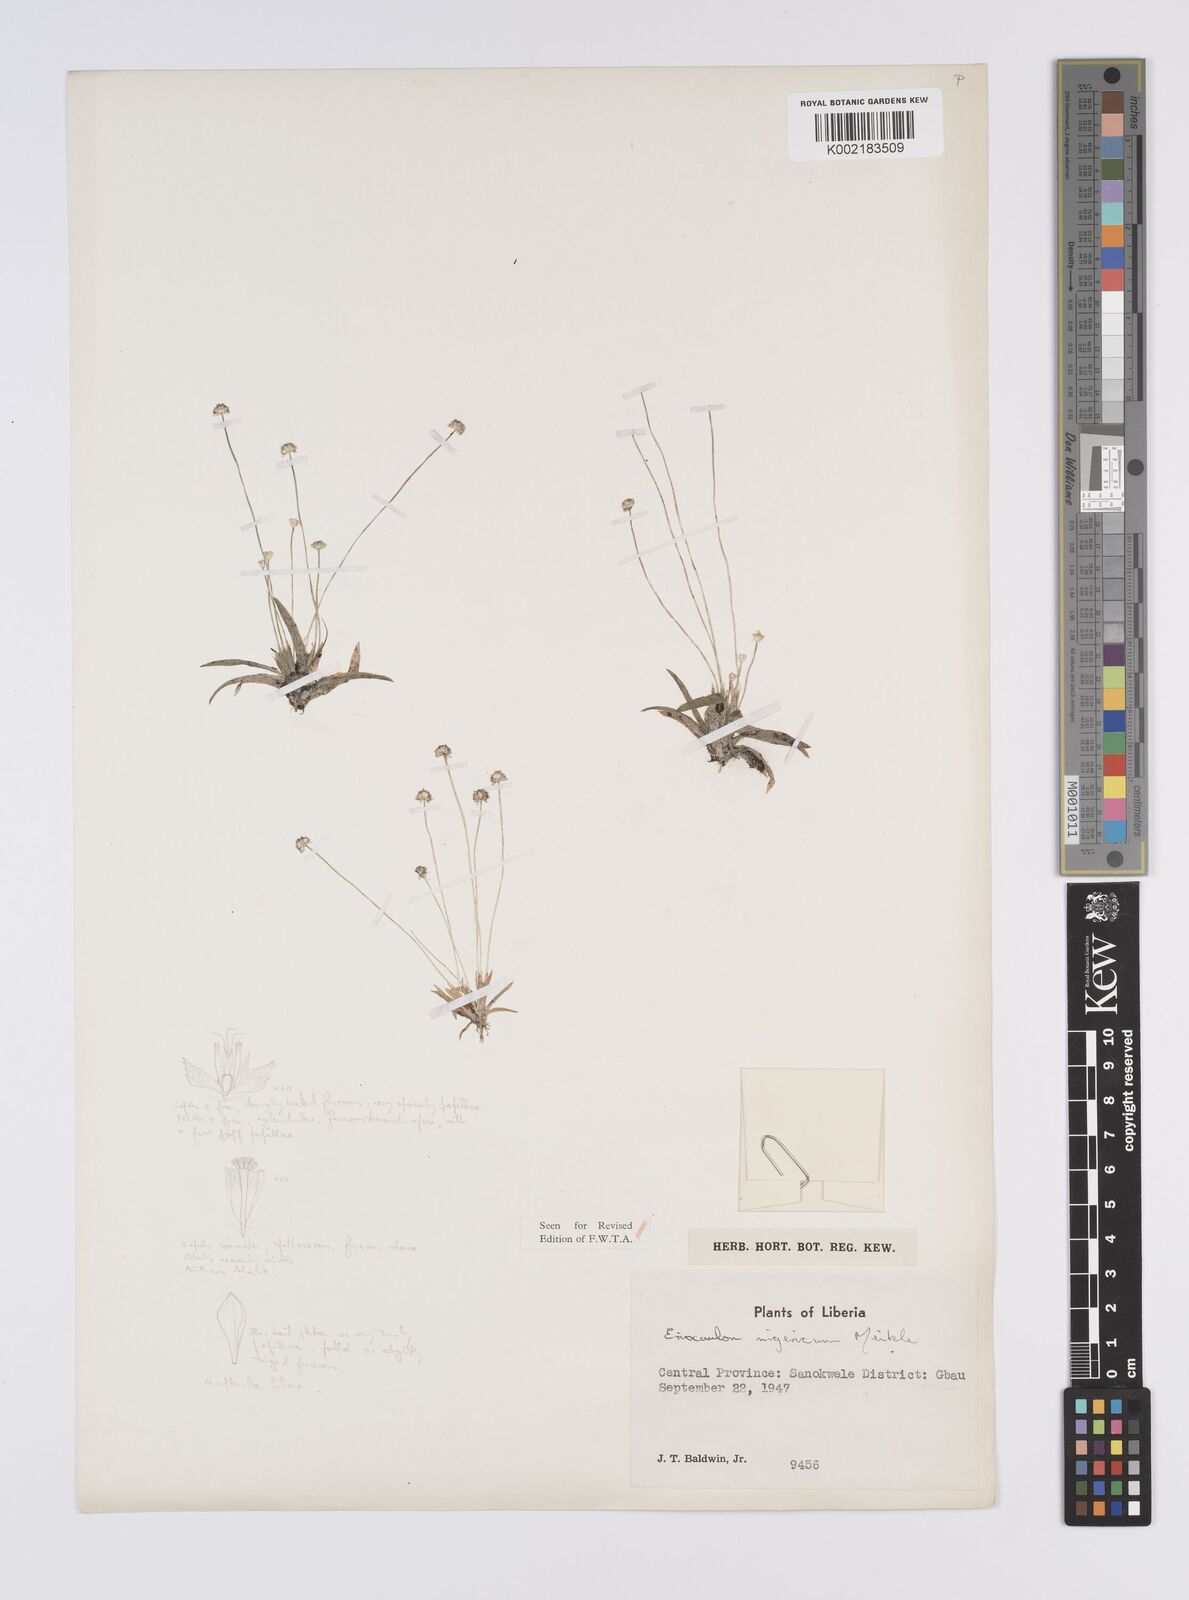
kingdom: Plantae
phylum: Tracheophyta
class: Liliopsida
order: Poales
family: Eriocaulaceae
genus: Eriocaulon
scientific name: Eriocaulon nigericum
